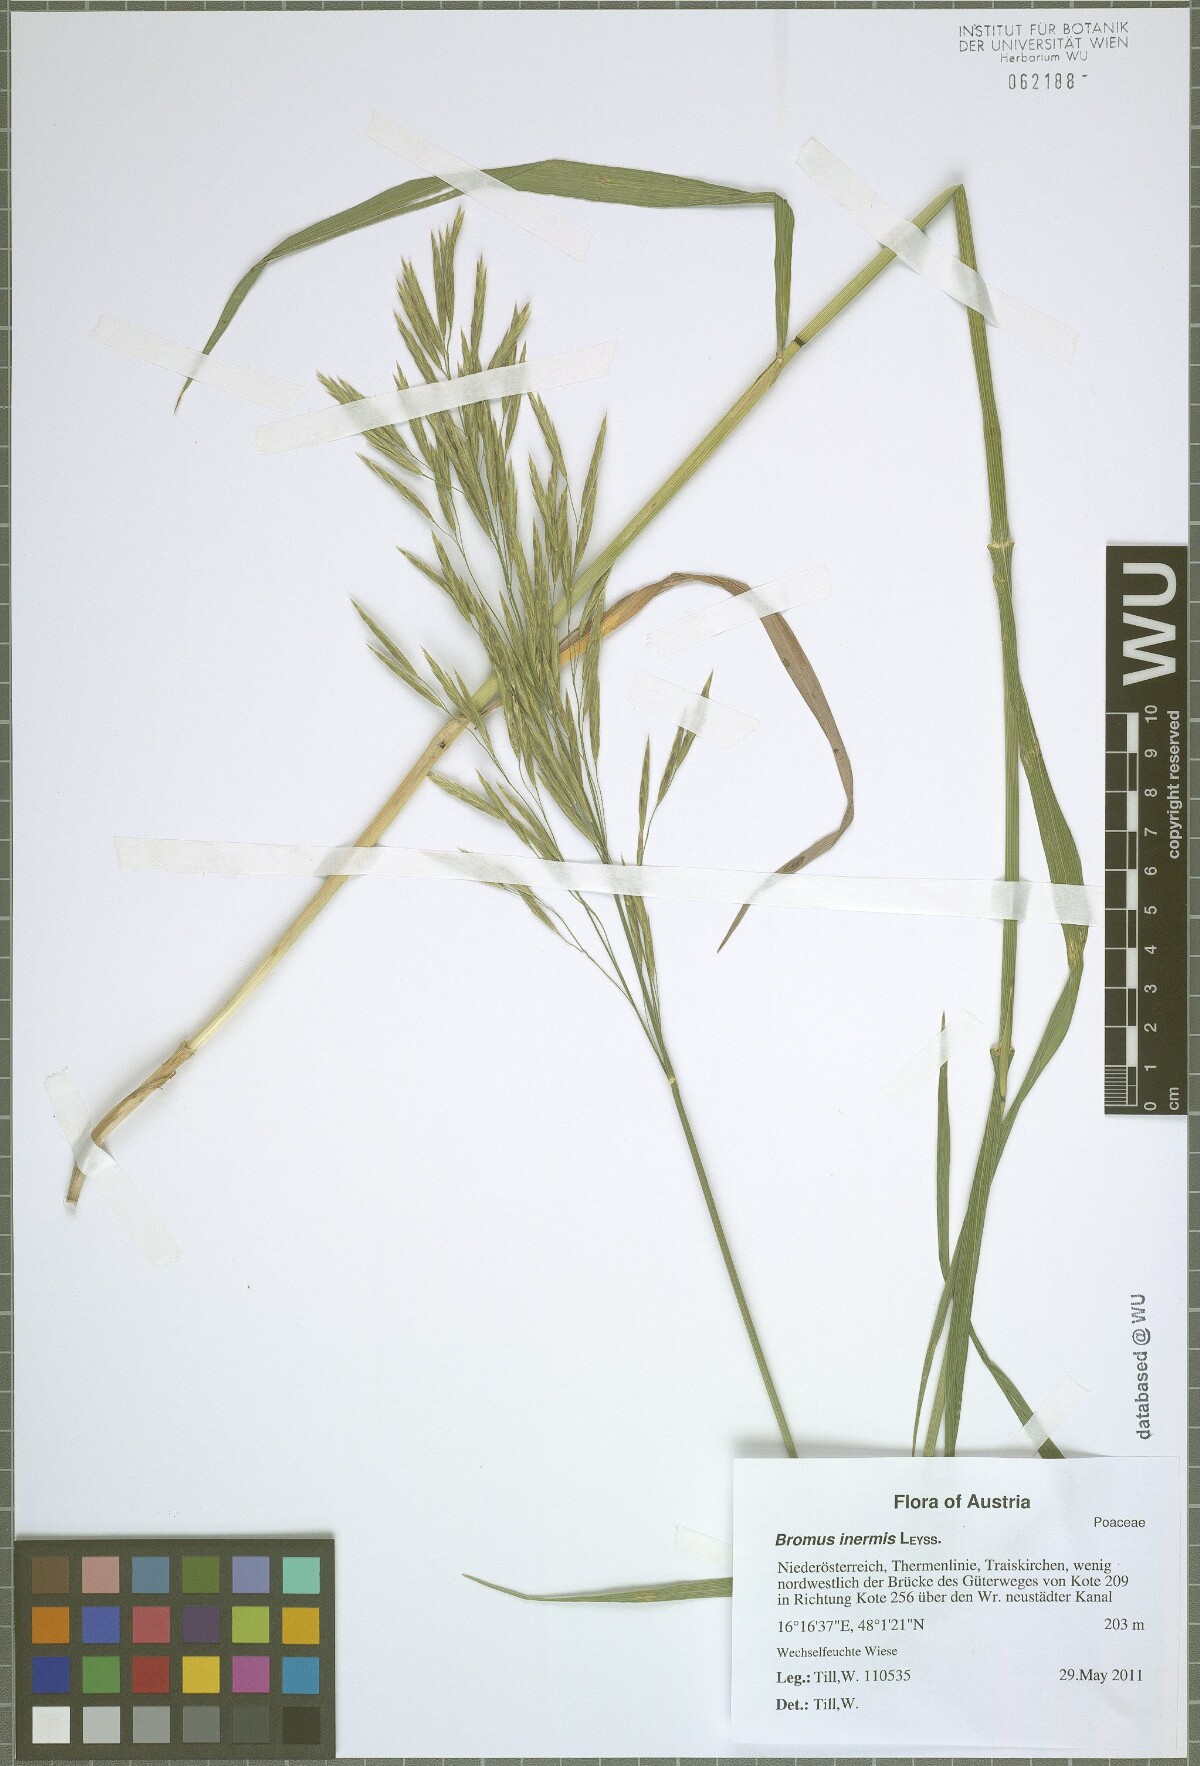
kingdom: Plantae
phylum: Tracheophyta
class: Liliopsida
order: Poales
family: Poaceae
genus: Bromus
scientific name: Bromus inermis
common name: Smooth brome
